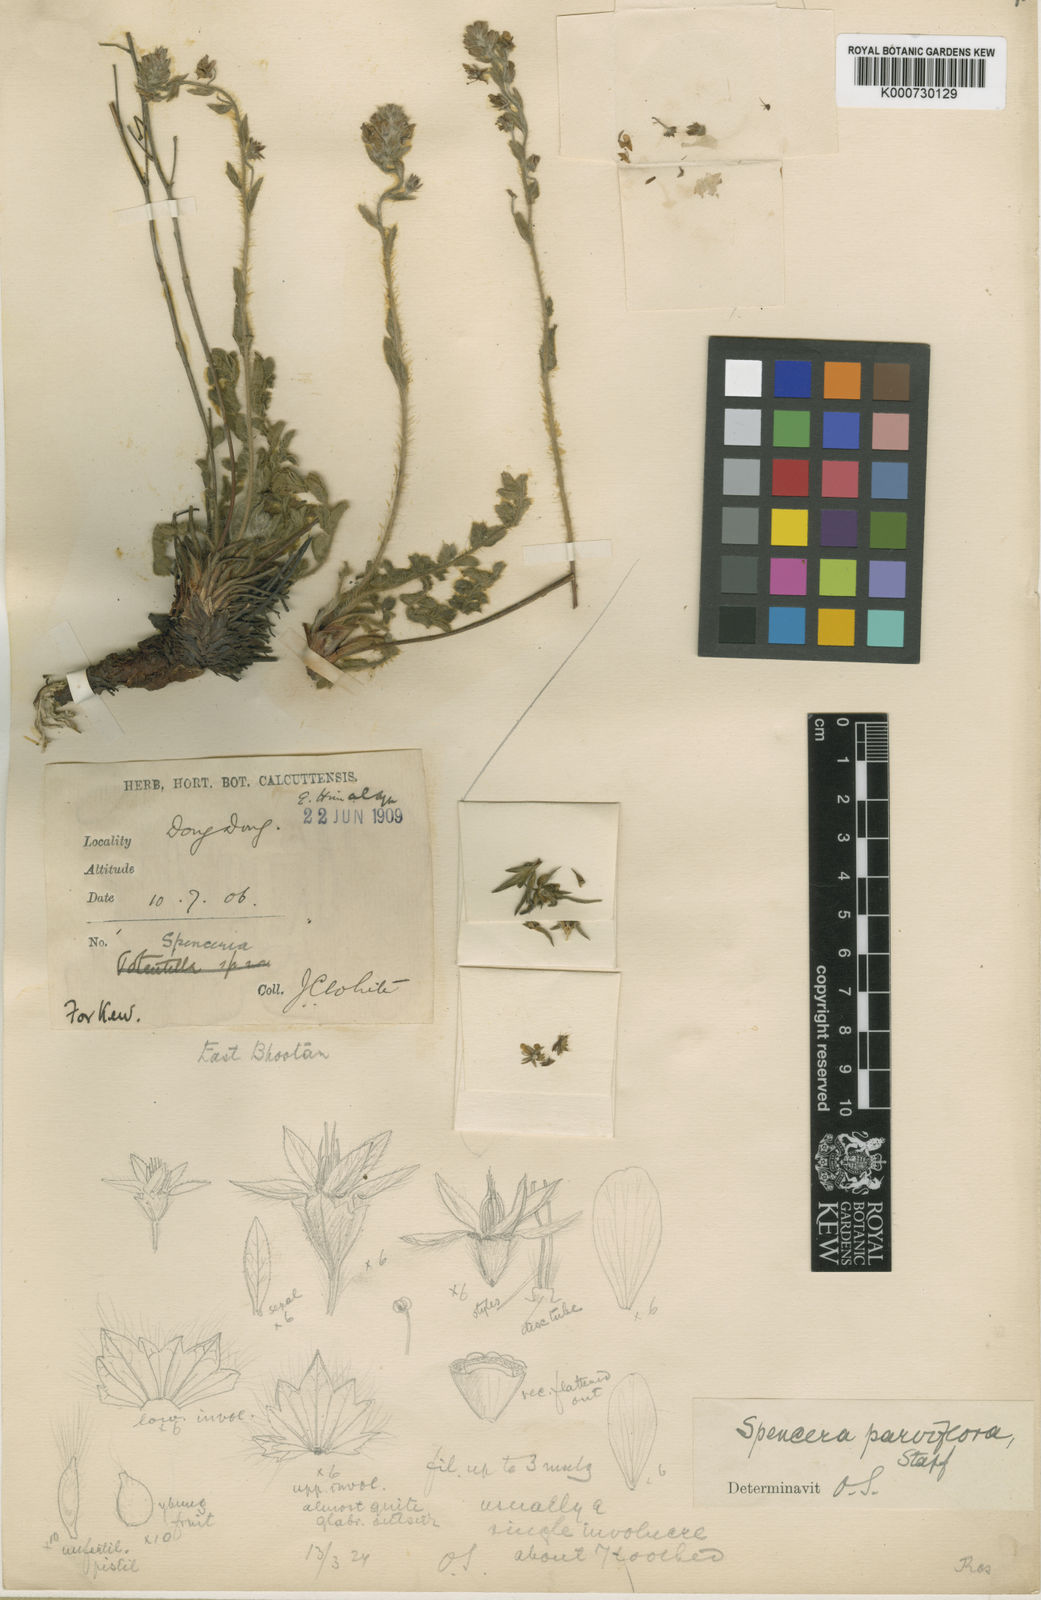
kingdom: Plantae
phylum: Tracheophyta
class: Magnoliopsida
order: Rosales
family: Rosaceae
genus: Spenceria
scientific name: Spenceria parviflora
